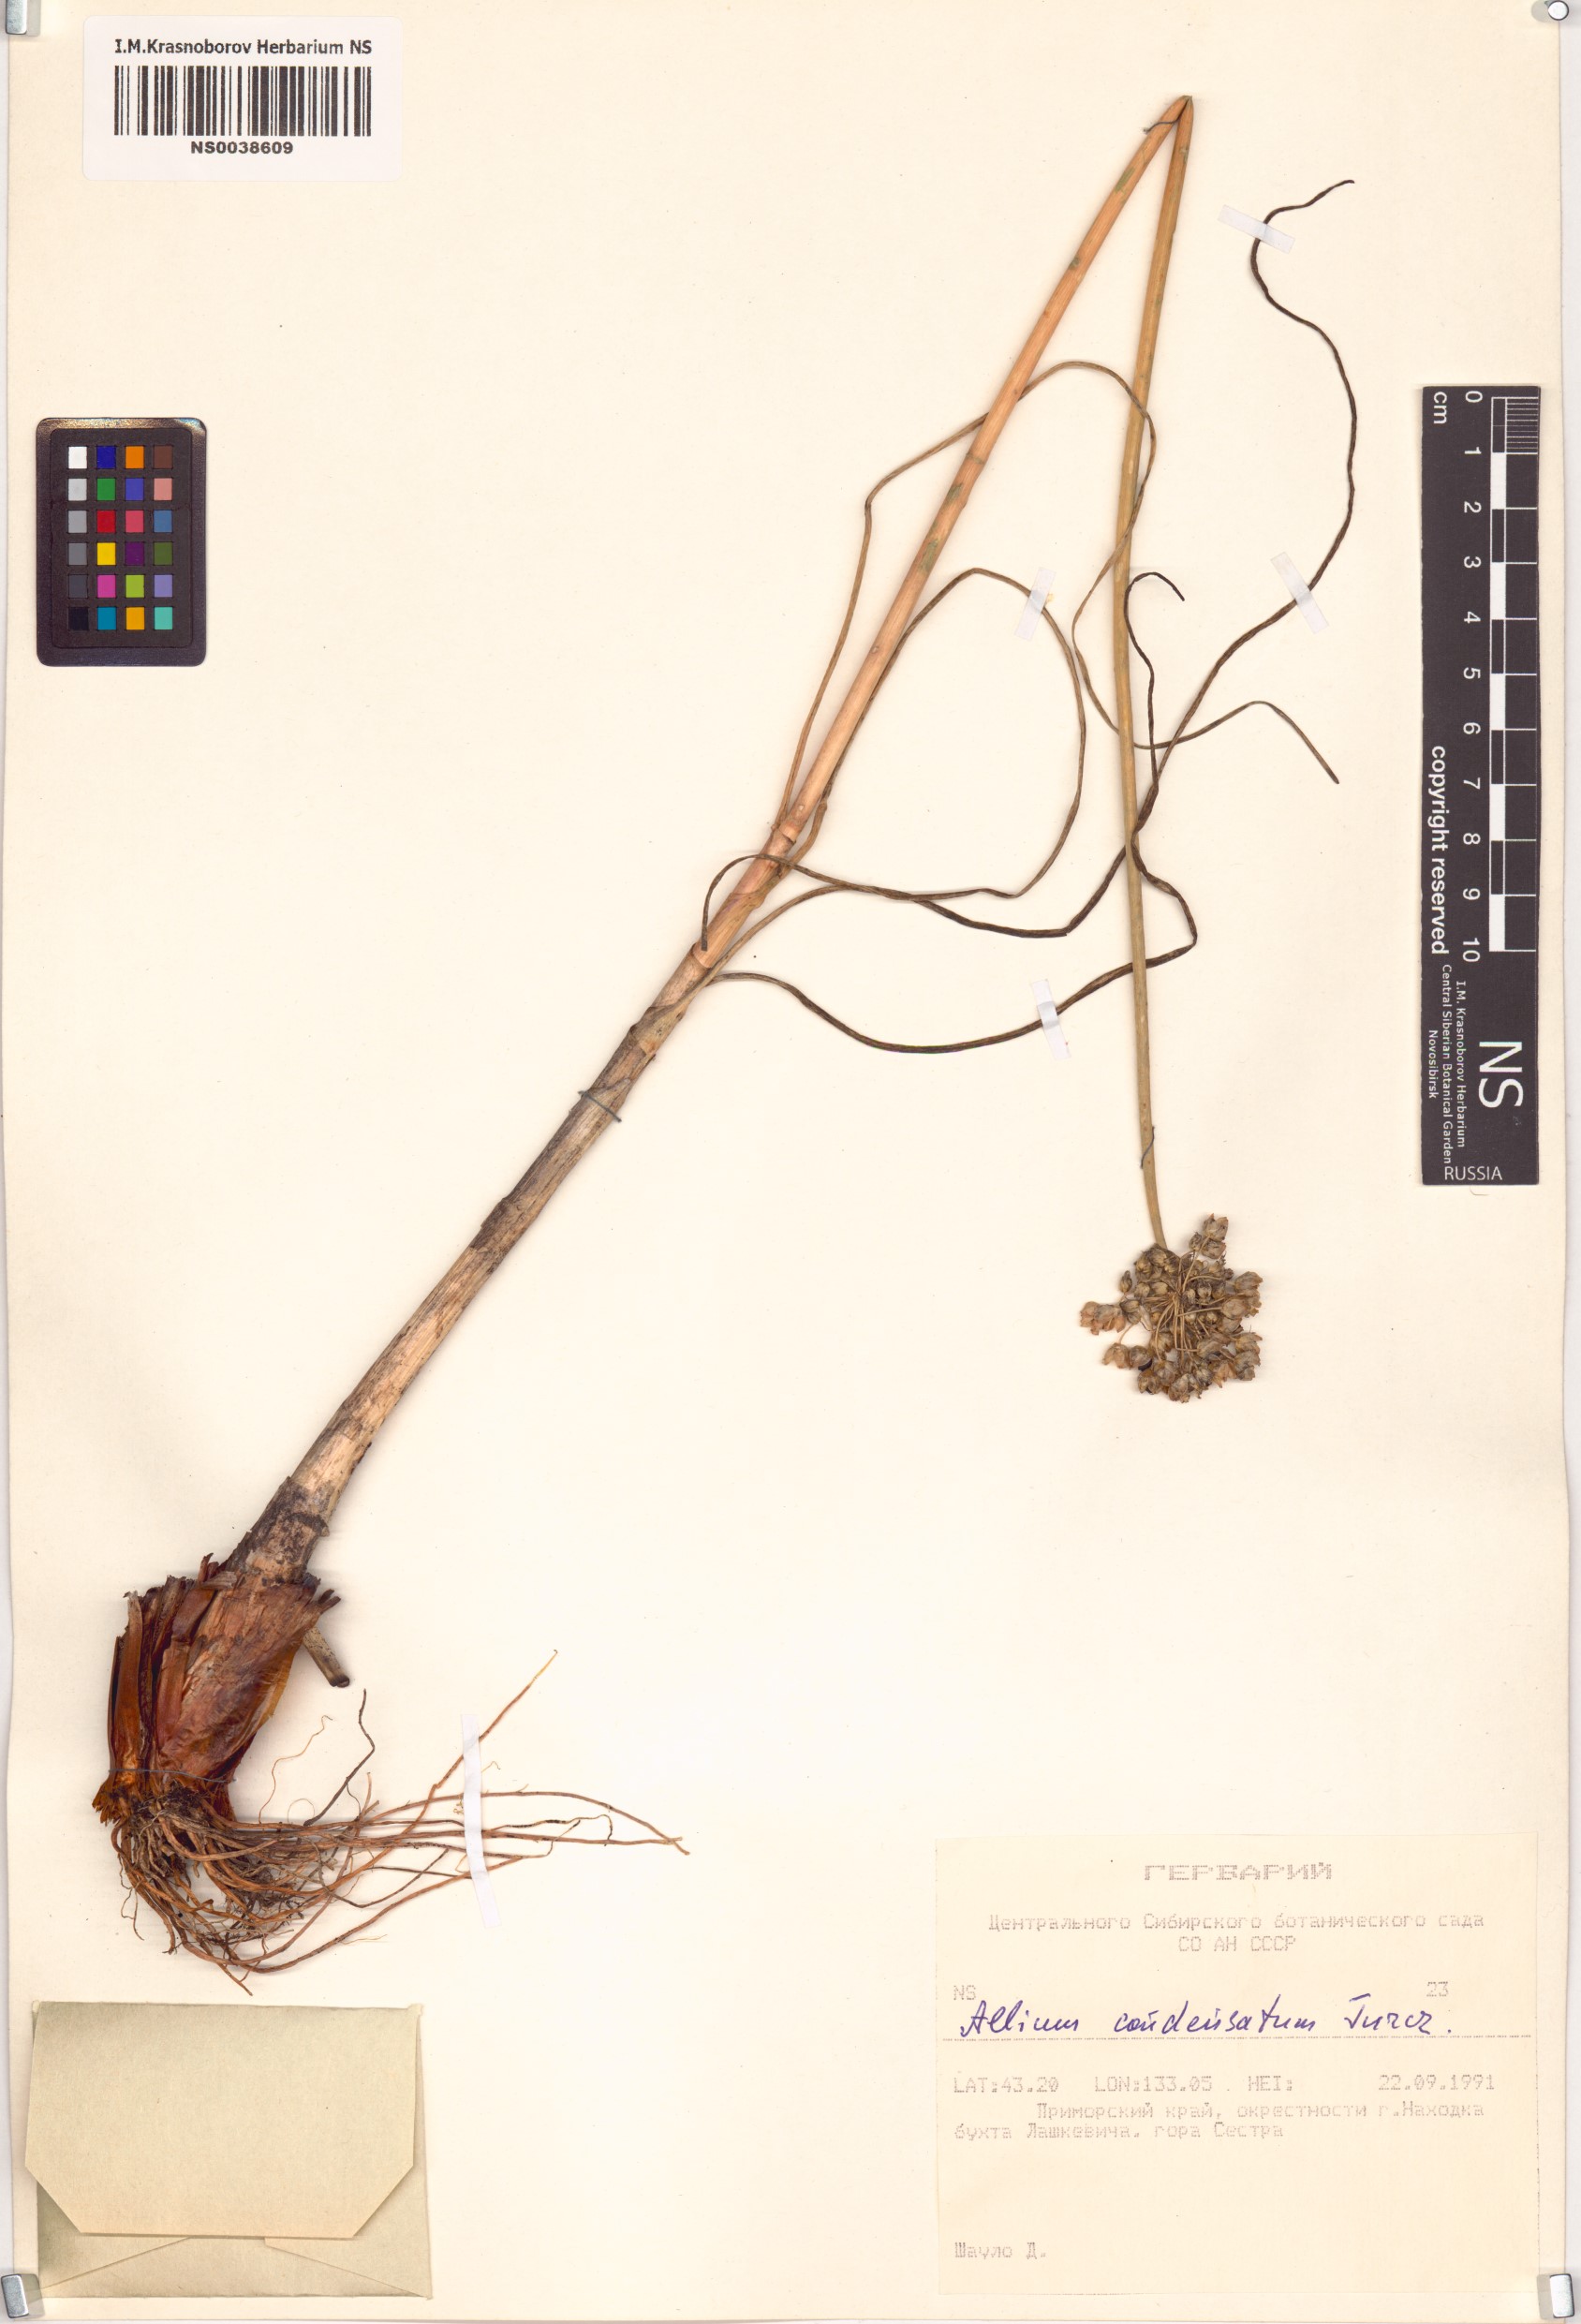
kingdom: Plantae
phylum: Tracheophyta
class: Liliopsida
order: Asparagales
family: Amaryllidaceae
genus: Allium
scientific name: Allium condensatum
